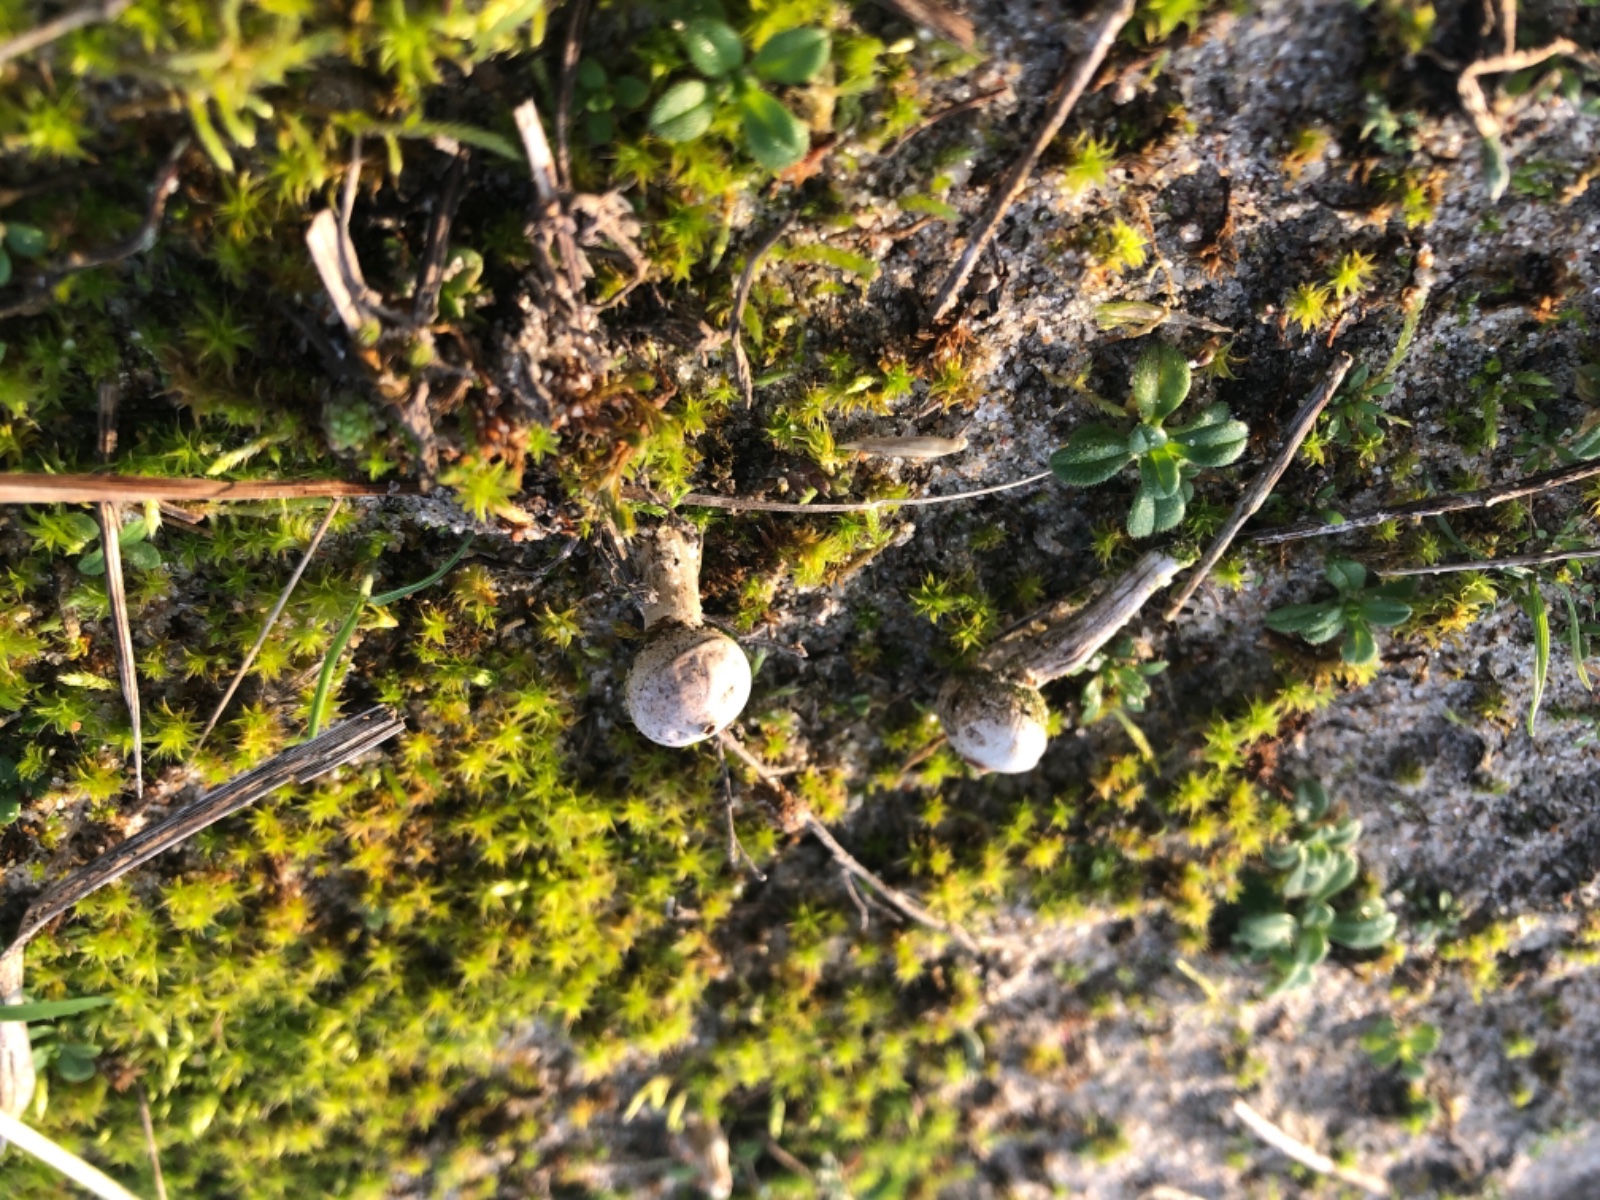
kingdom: Fungi
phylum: Basidiomycota
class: Agaricomycetes
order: Agaricales
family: Agaricaceae
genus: Tulostoma
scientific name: Tulostoma brumale
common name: vinter-stilkbovist
